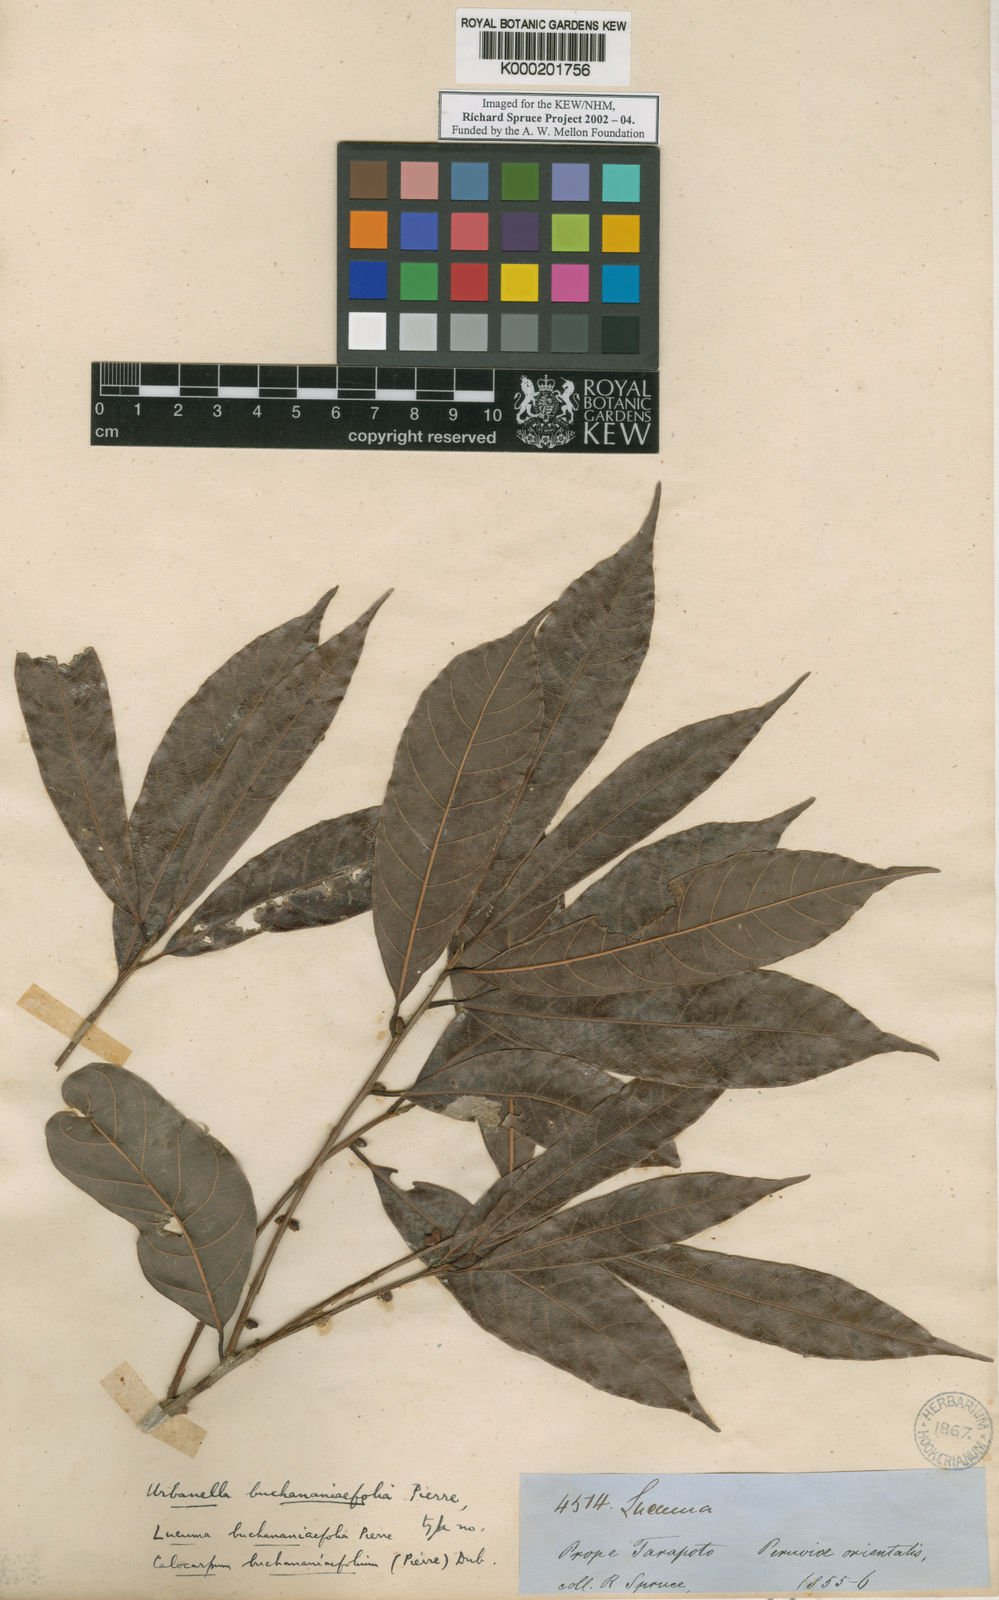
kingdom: Plantae
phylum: Tracheophyta
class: Magnoliopsida
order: Ericales
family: Sapotaceae
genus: Pouteria
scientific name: Pouteria procera
